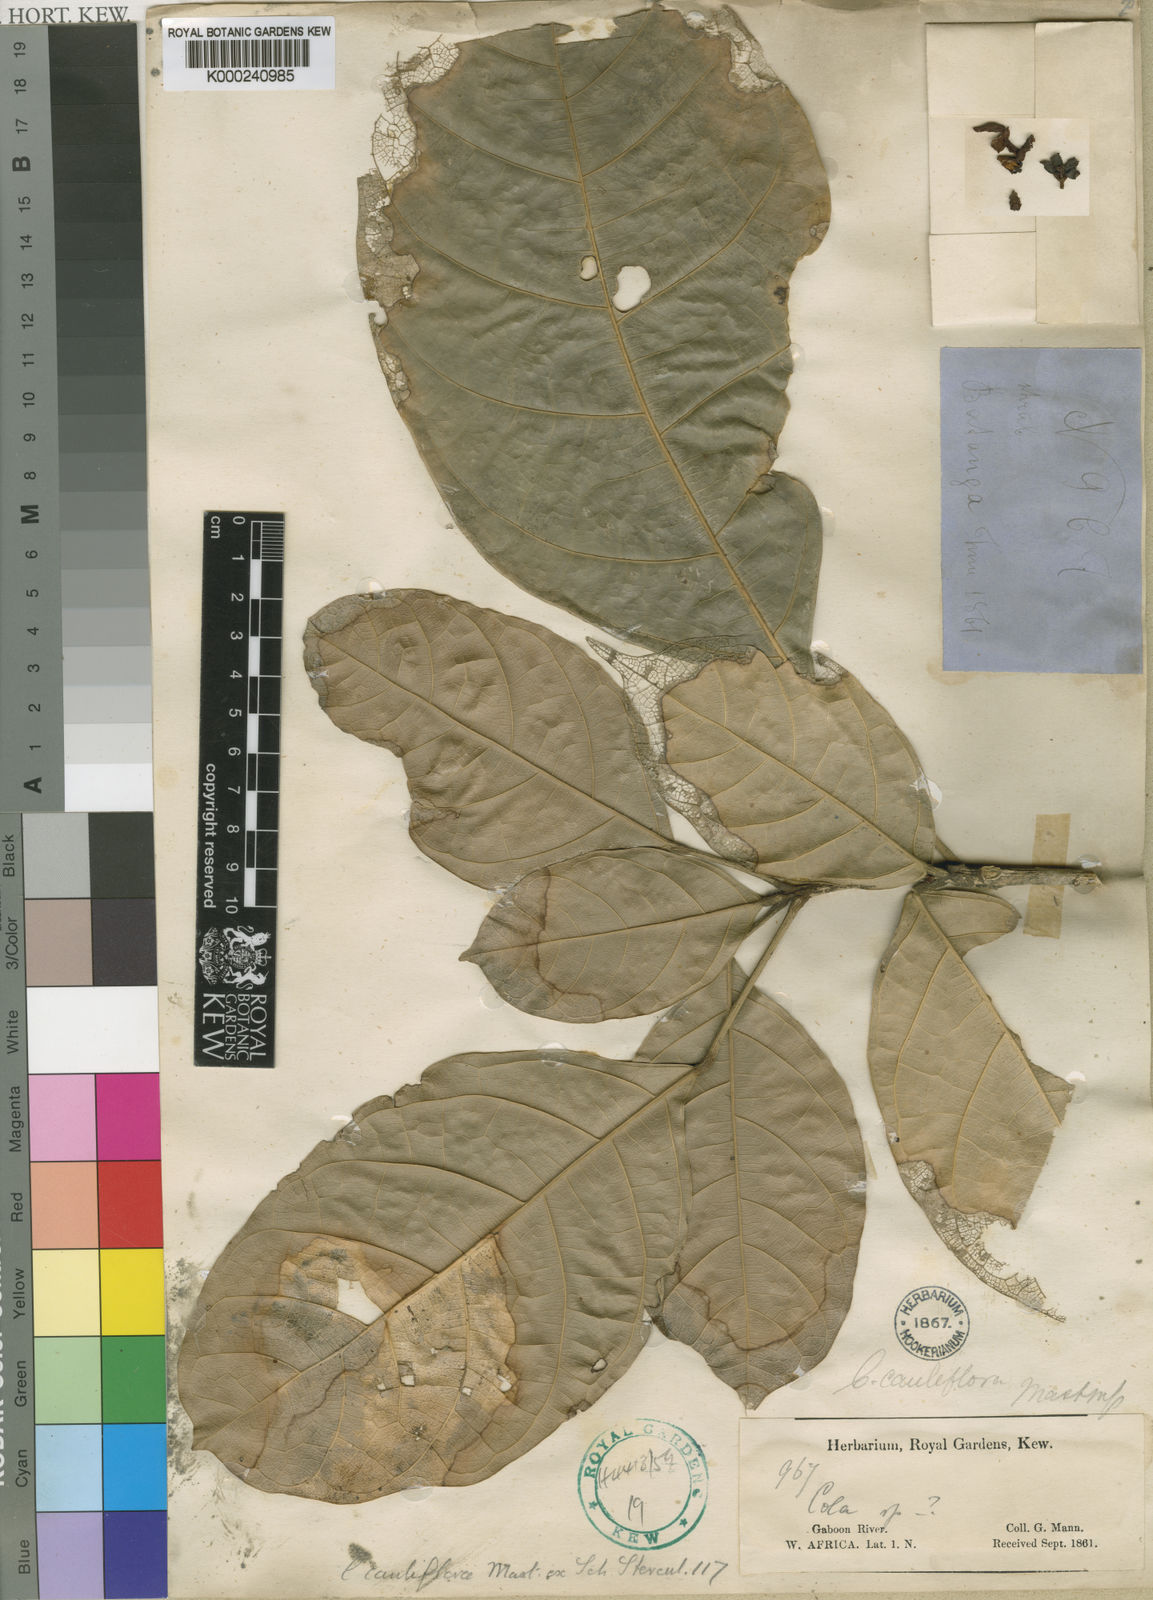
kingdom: Plantae
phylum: Tracheophyta
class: Magnoliopsida
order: Malvales
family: Malvaceae
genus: Cola
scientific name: Cola cauliflora
